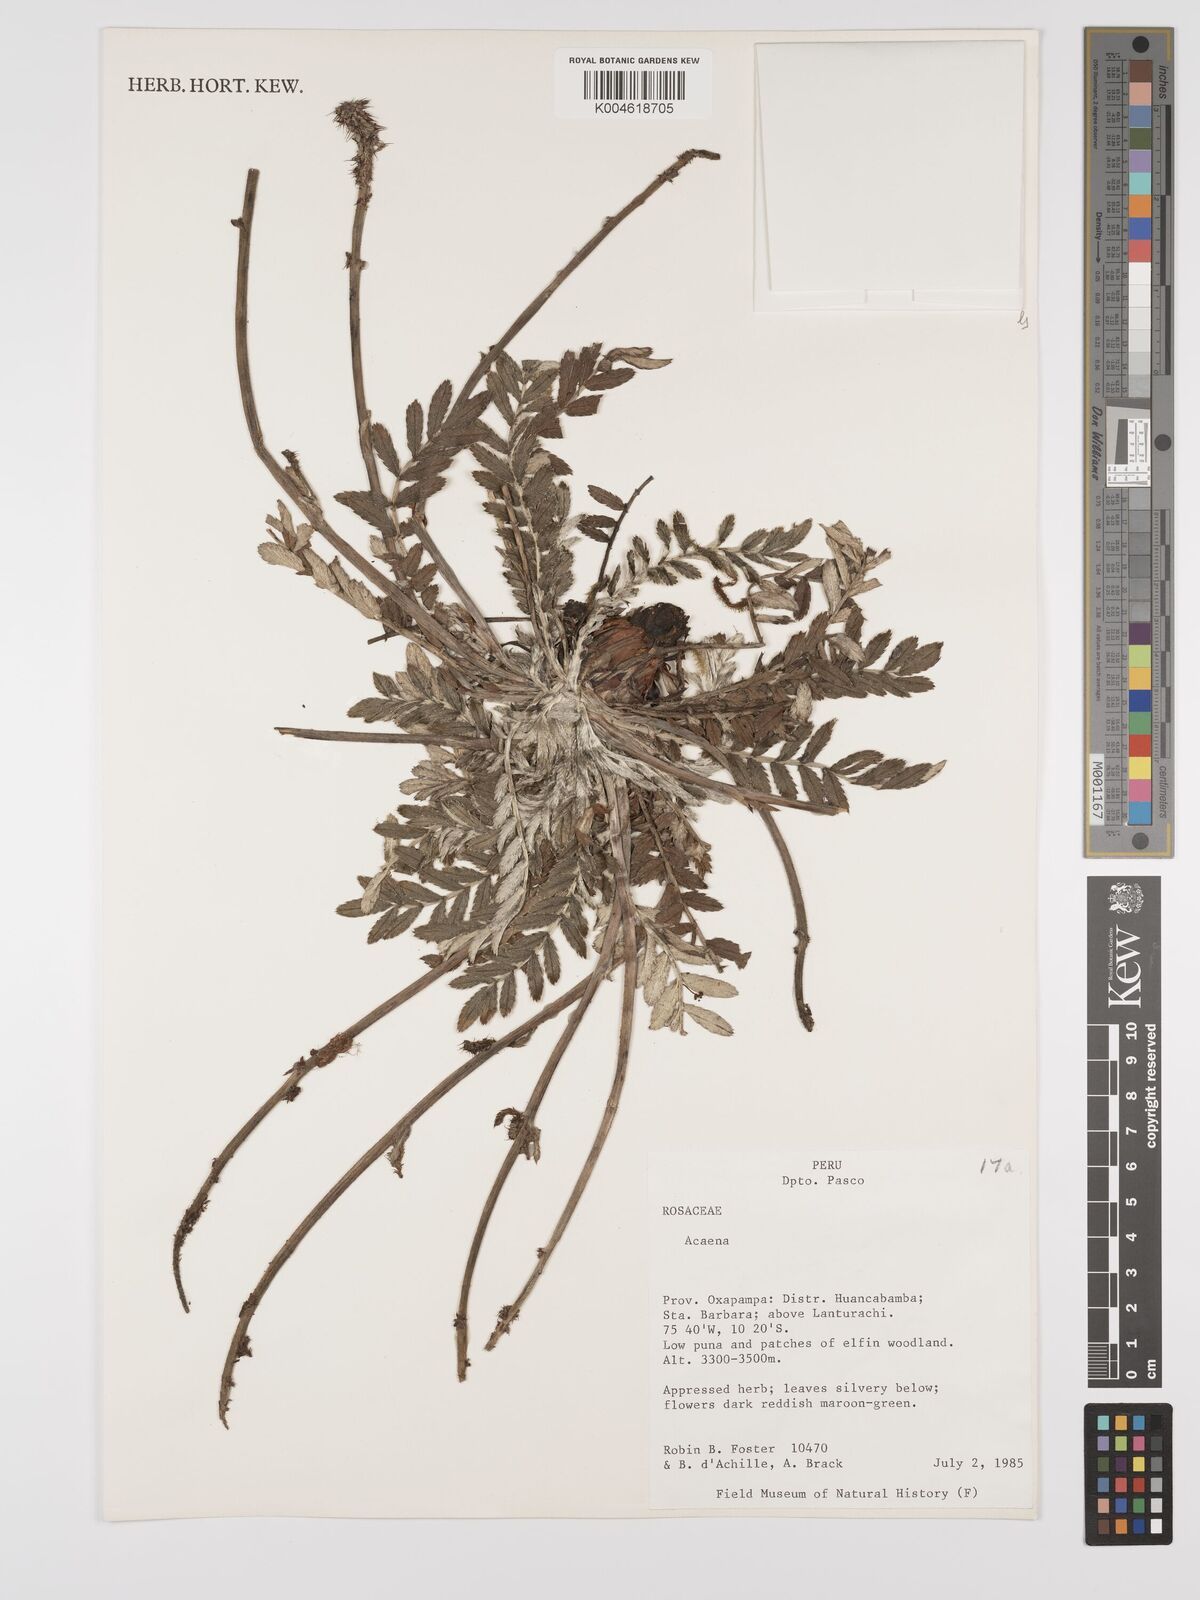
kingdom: Plantae
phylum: Tracheophyta
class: Magnoliopsida
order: Rosales
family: Rosaceae
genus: Acaena
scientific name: Acaena
